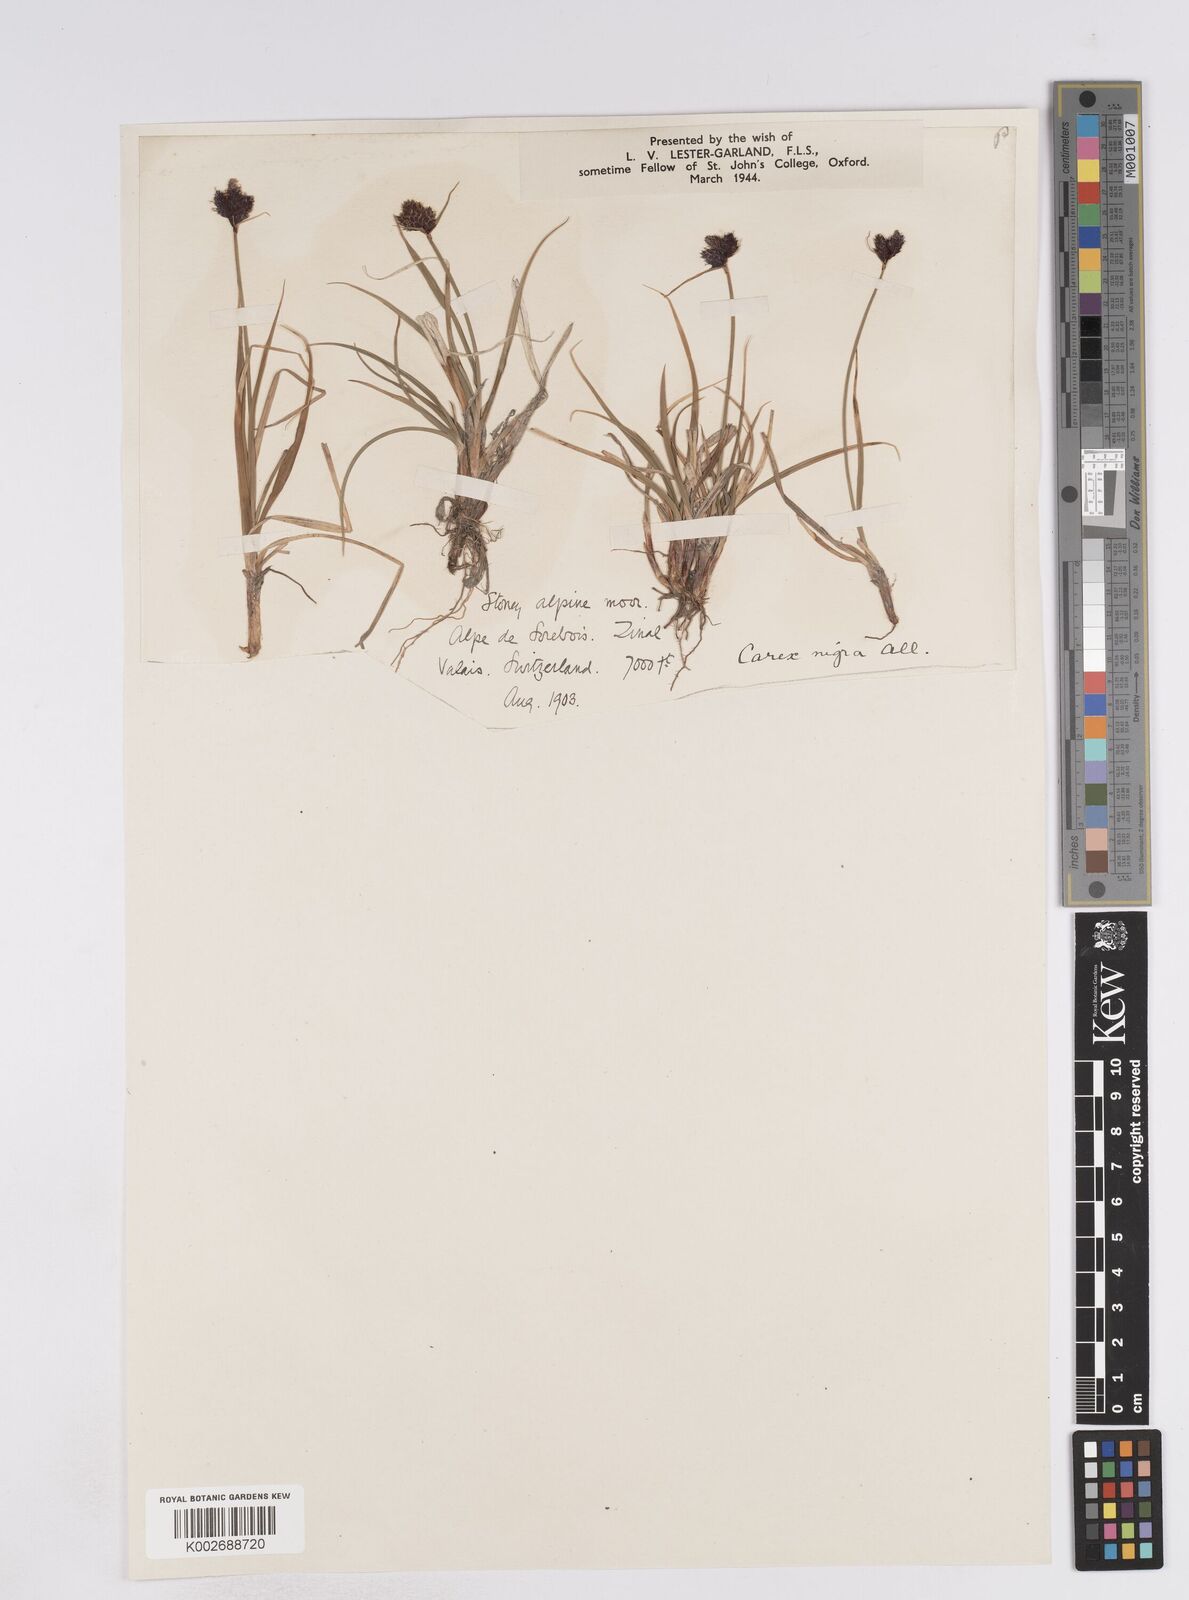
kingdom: Plantae
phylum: Tracheophyta
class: Liliopsida
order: Poales
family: Cyperaceae
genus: Carex
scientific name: Carex parviflora
